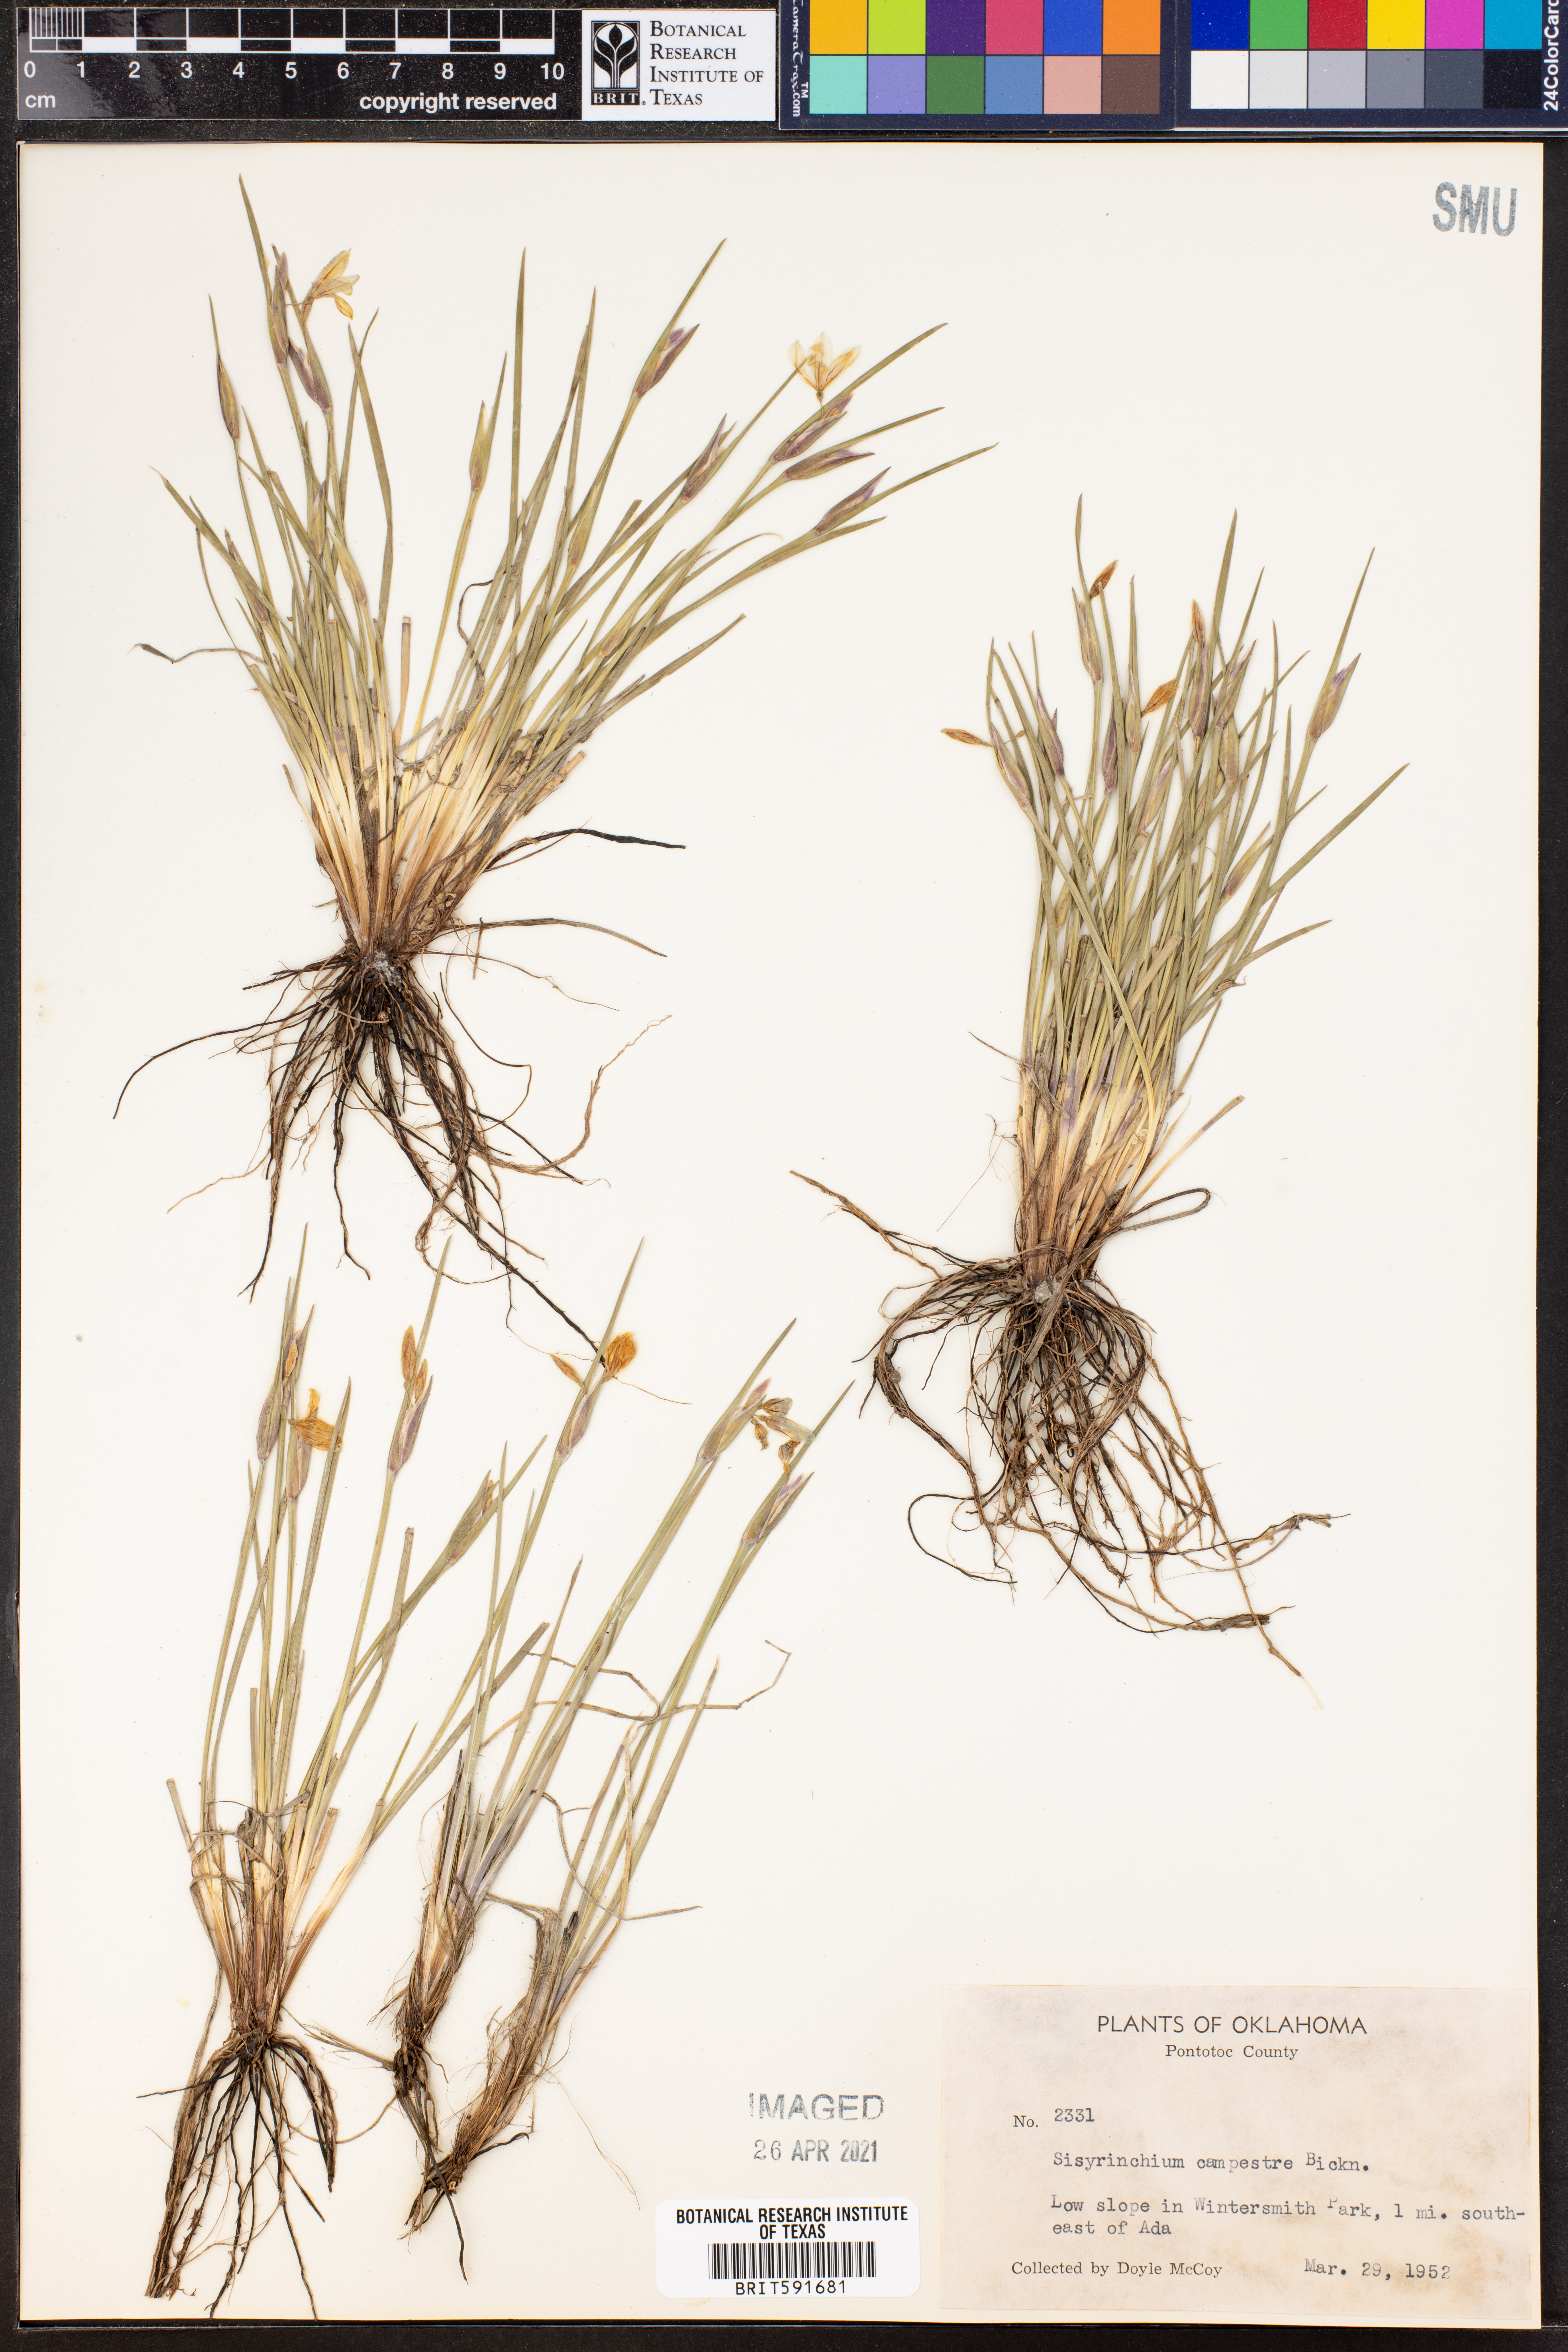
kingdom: Plantae
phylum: Tracheophyta
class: Liliopsida
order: Asparagales
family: Iridaceae
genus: Sisyrinchium
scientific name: Sisyrinchium campestre
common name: Prairie blue-eyed-grass
